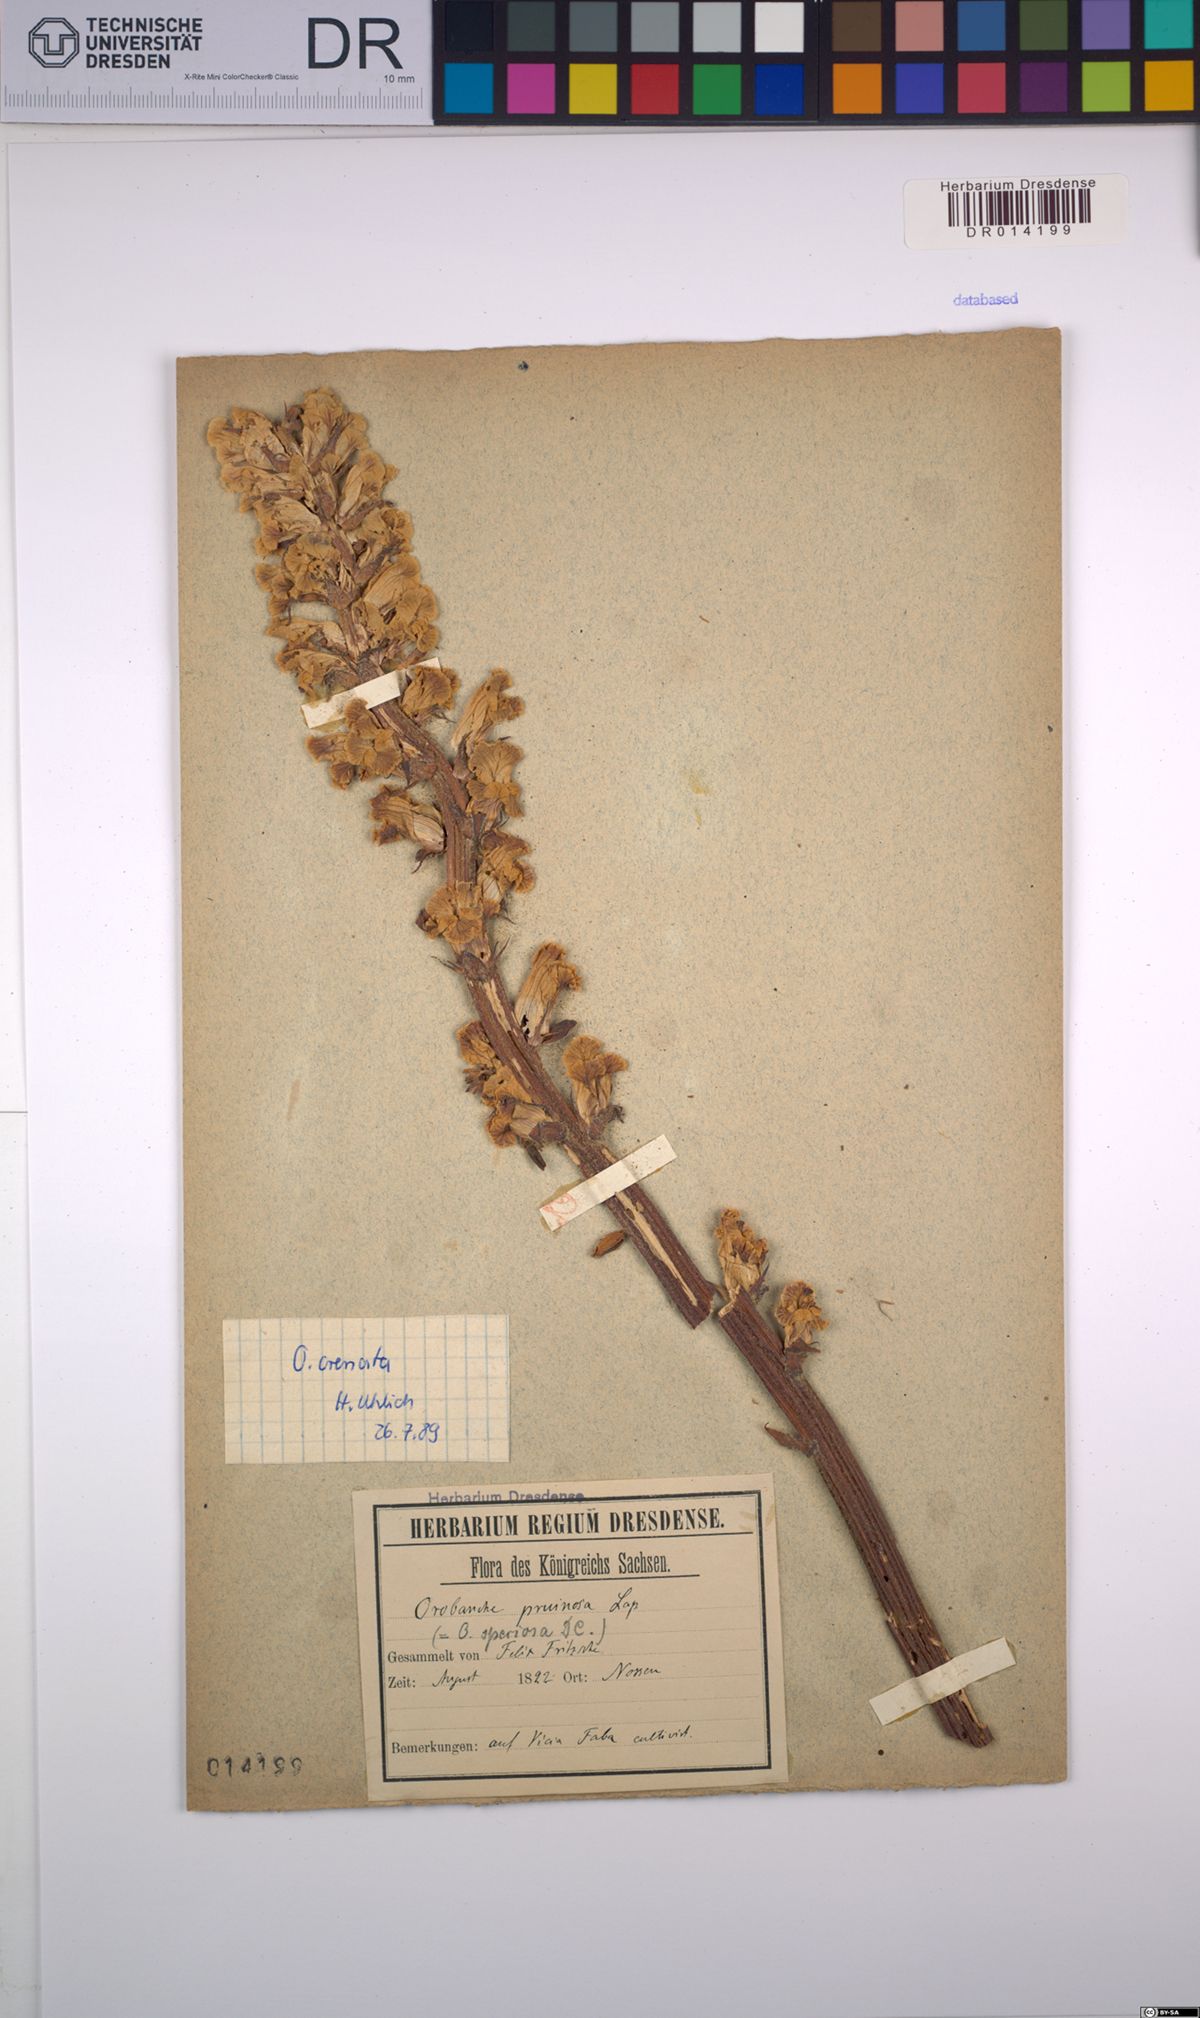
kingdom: Plantae
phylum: Tracheophyta
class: Magnoliopsida
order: Lamiales
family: Orobanchaceae
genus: Orobanche
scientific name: Orobanche crenata
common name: Bean broomrape
